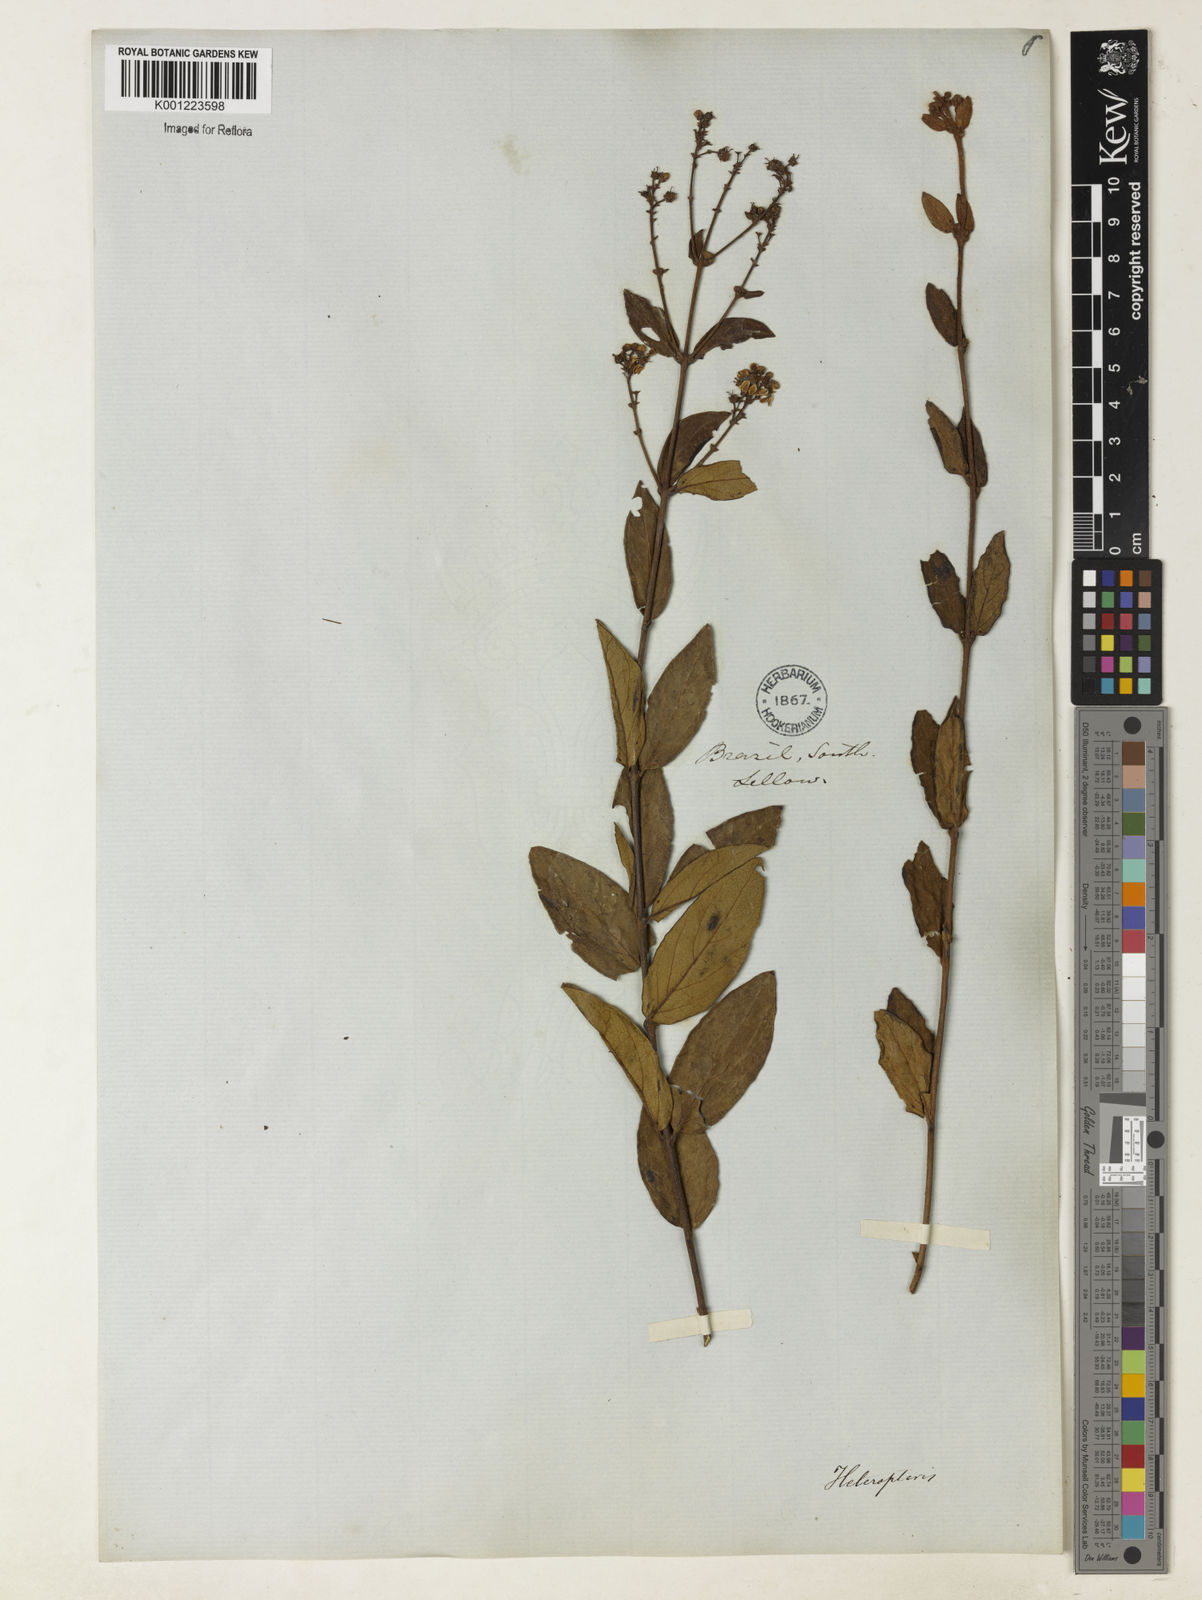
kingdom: Plantae
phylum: Tracheophyta
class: Magnoliopsida
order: Malpighiales
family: Malpighiaceae
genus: Heteropterys
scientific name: Heteropterys umbellata
